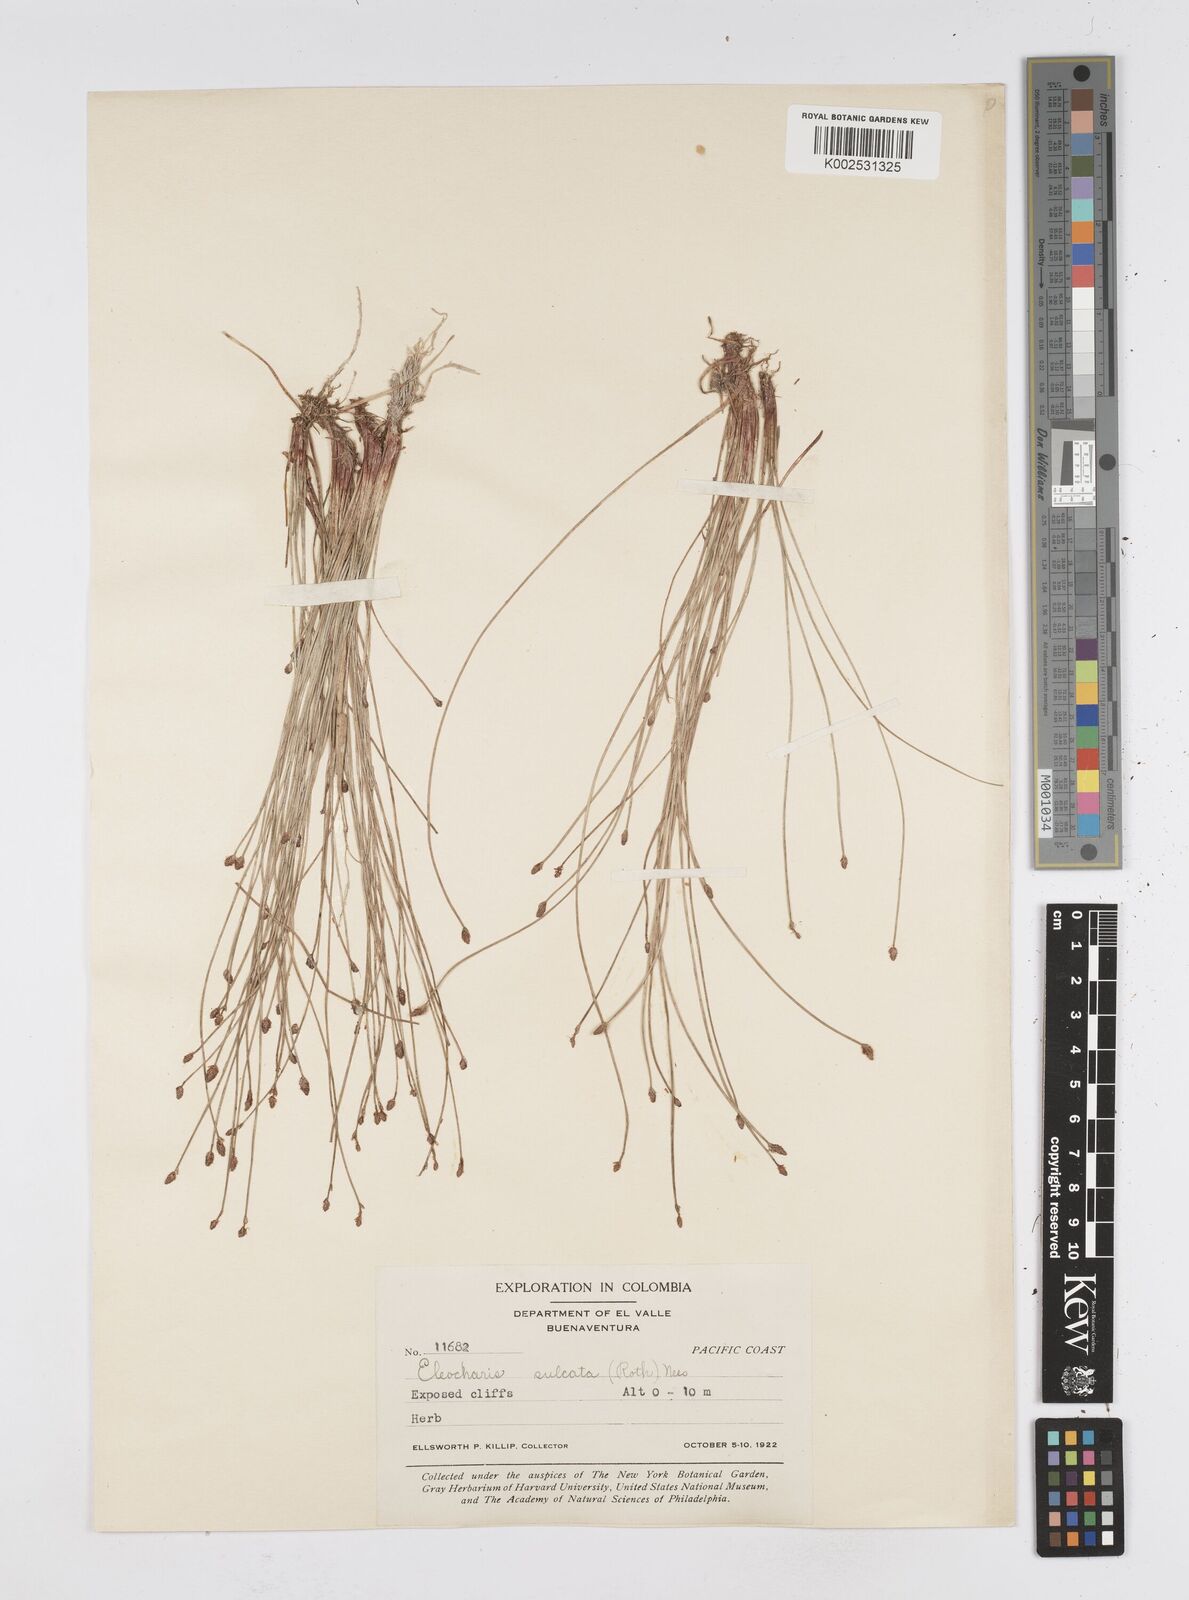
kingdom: Plantae
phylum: Tracheophyta
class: Liliopsida
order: Poales
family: Cyperaceae
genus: Eleocharis
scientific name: Eleocharis filiculmis
